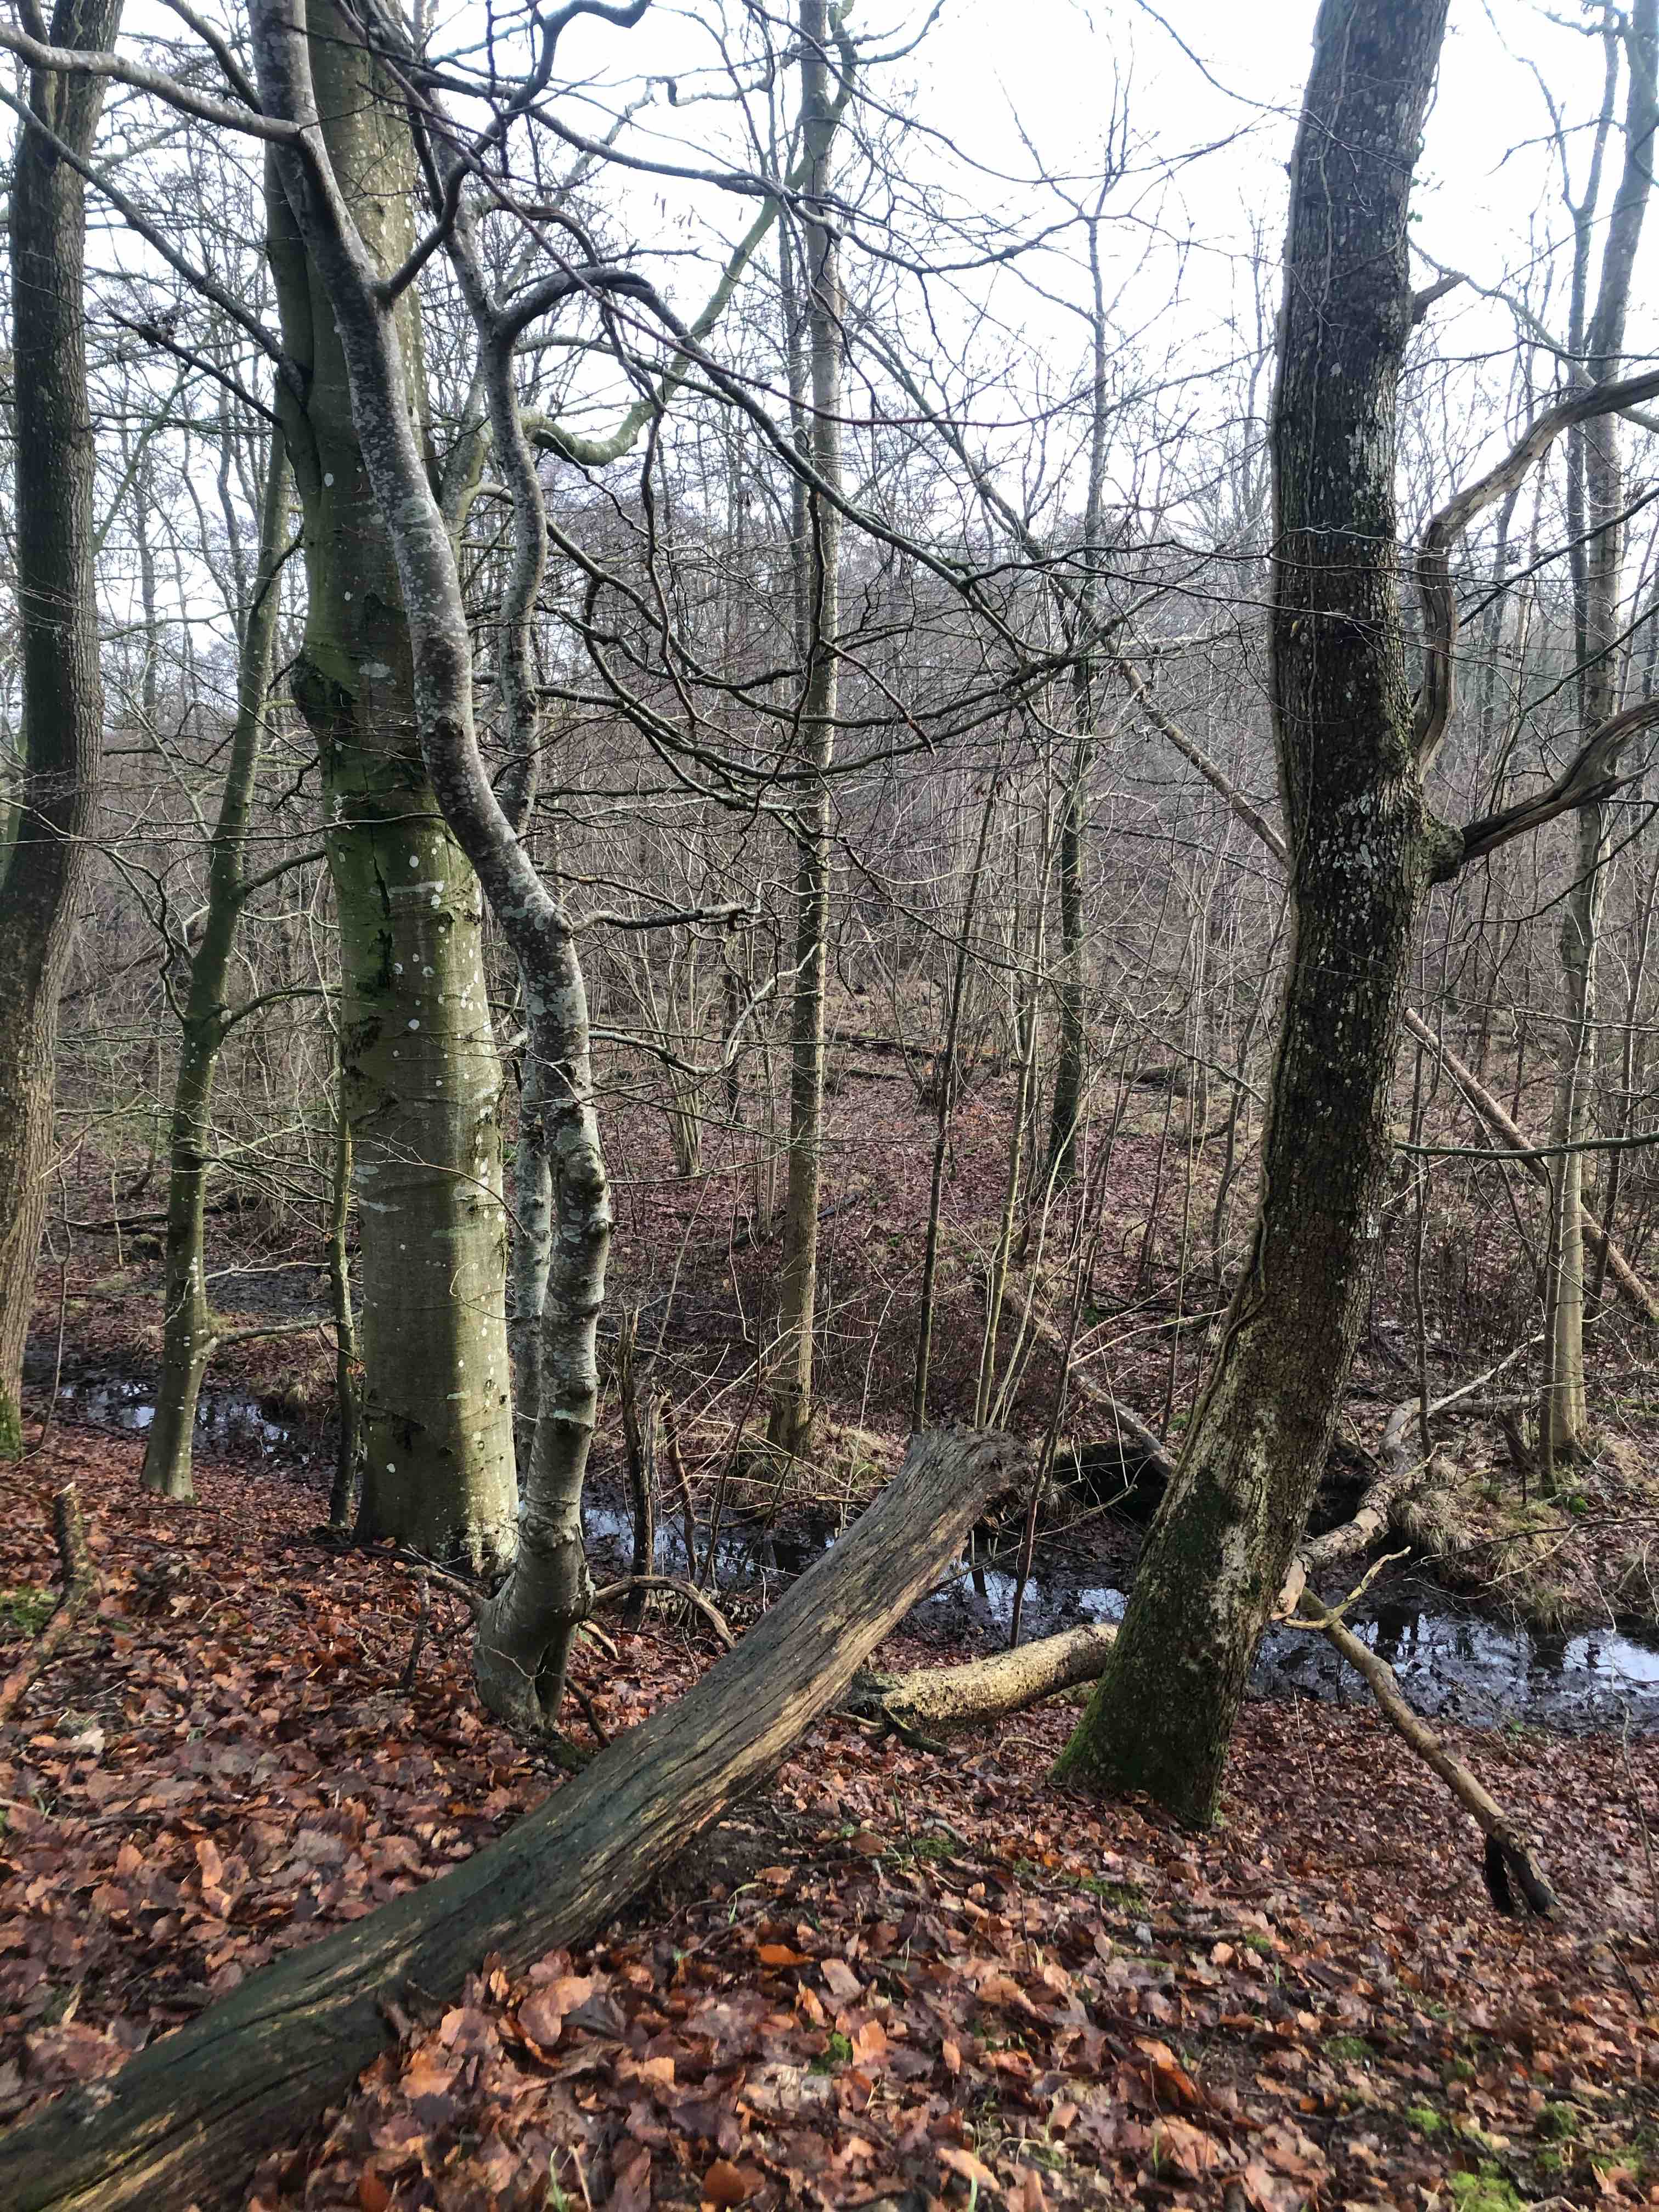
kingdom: Fungi
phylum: Basidiomycota
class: Agaricomycetes
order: Hymenochaetales
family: Hymenochaetaceae
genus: Hymenochaete
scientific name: Hymenochaete rubiginosa
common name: stiv ruslædersvamp
